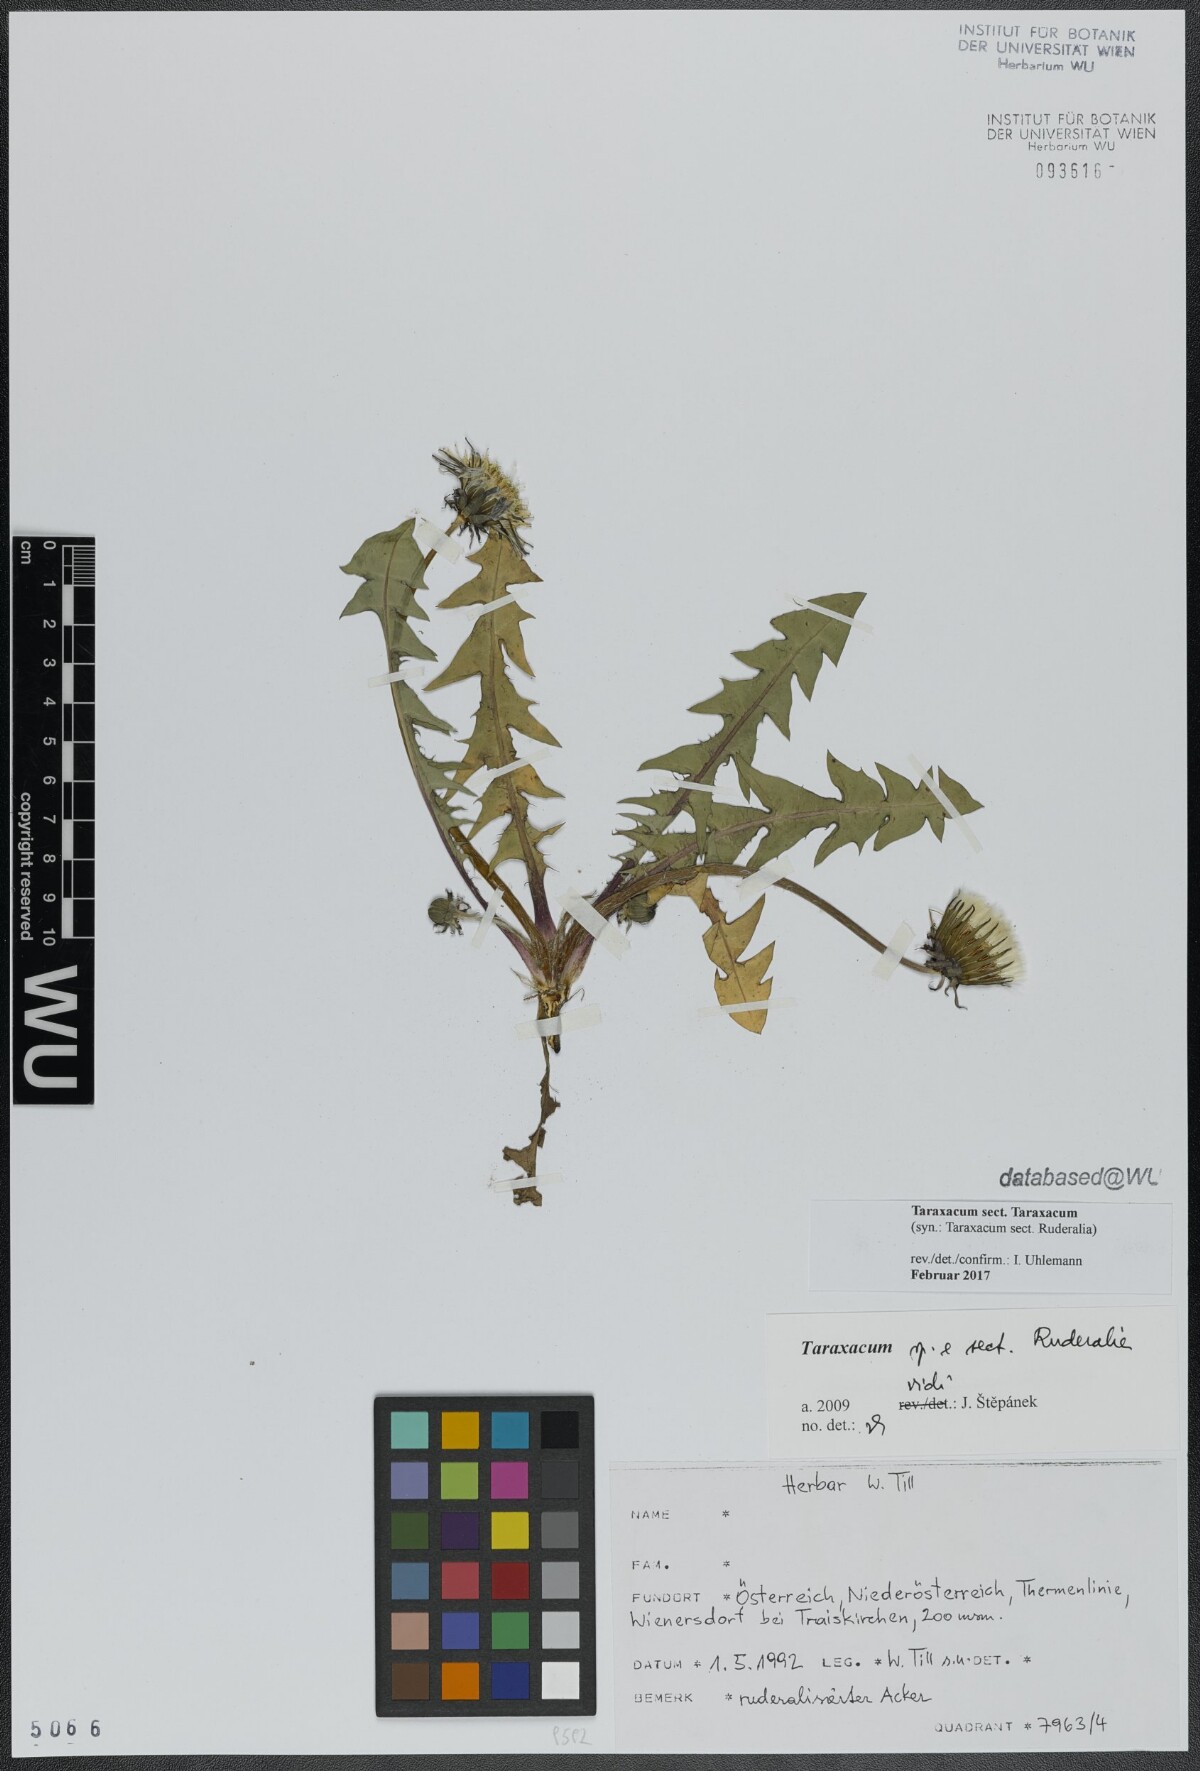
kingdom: Plantae
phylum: Tracheophyta
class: Magnoliopsida
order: Asterales
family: Asteraceae
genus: Taraxacum
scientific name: Taraxacum
